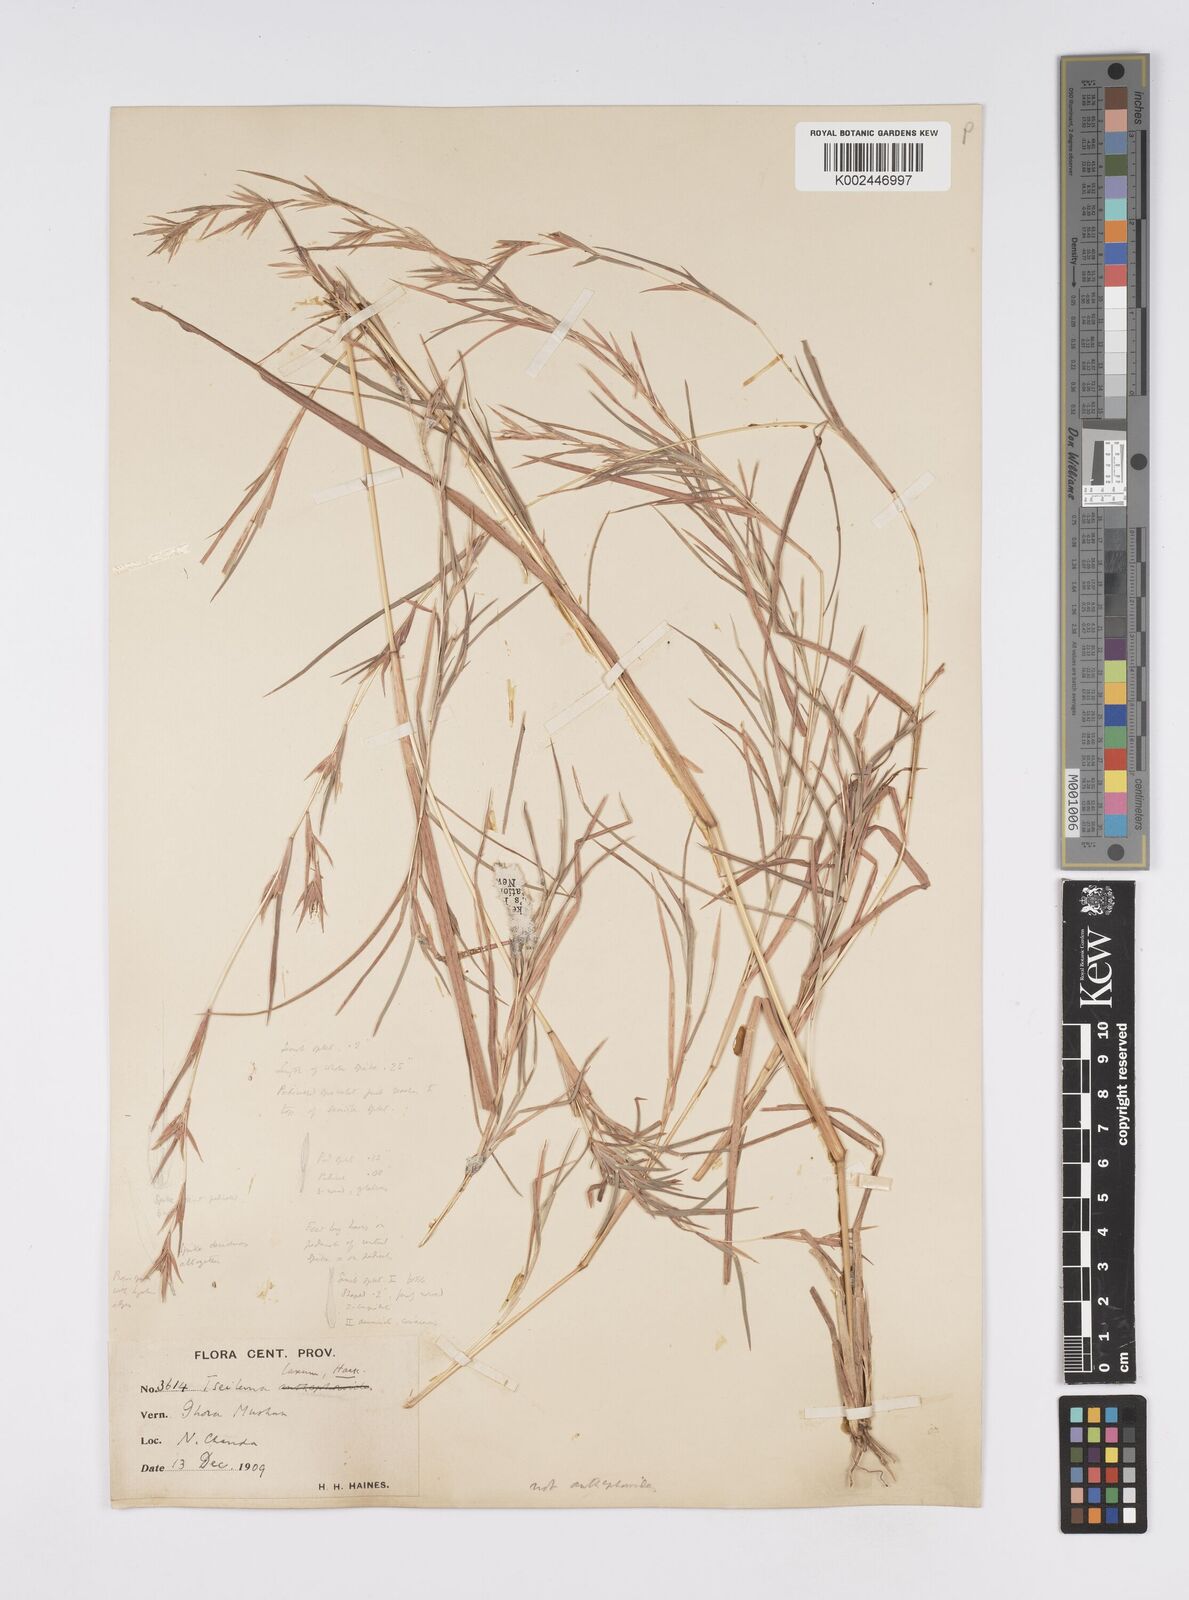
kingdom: Plantae
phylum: Tracheophyta
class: Liliopsida
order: Poales
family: Poaceae
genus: Iseilema
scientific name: Iseilema prostratum
